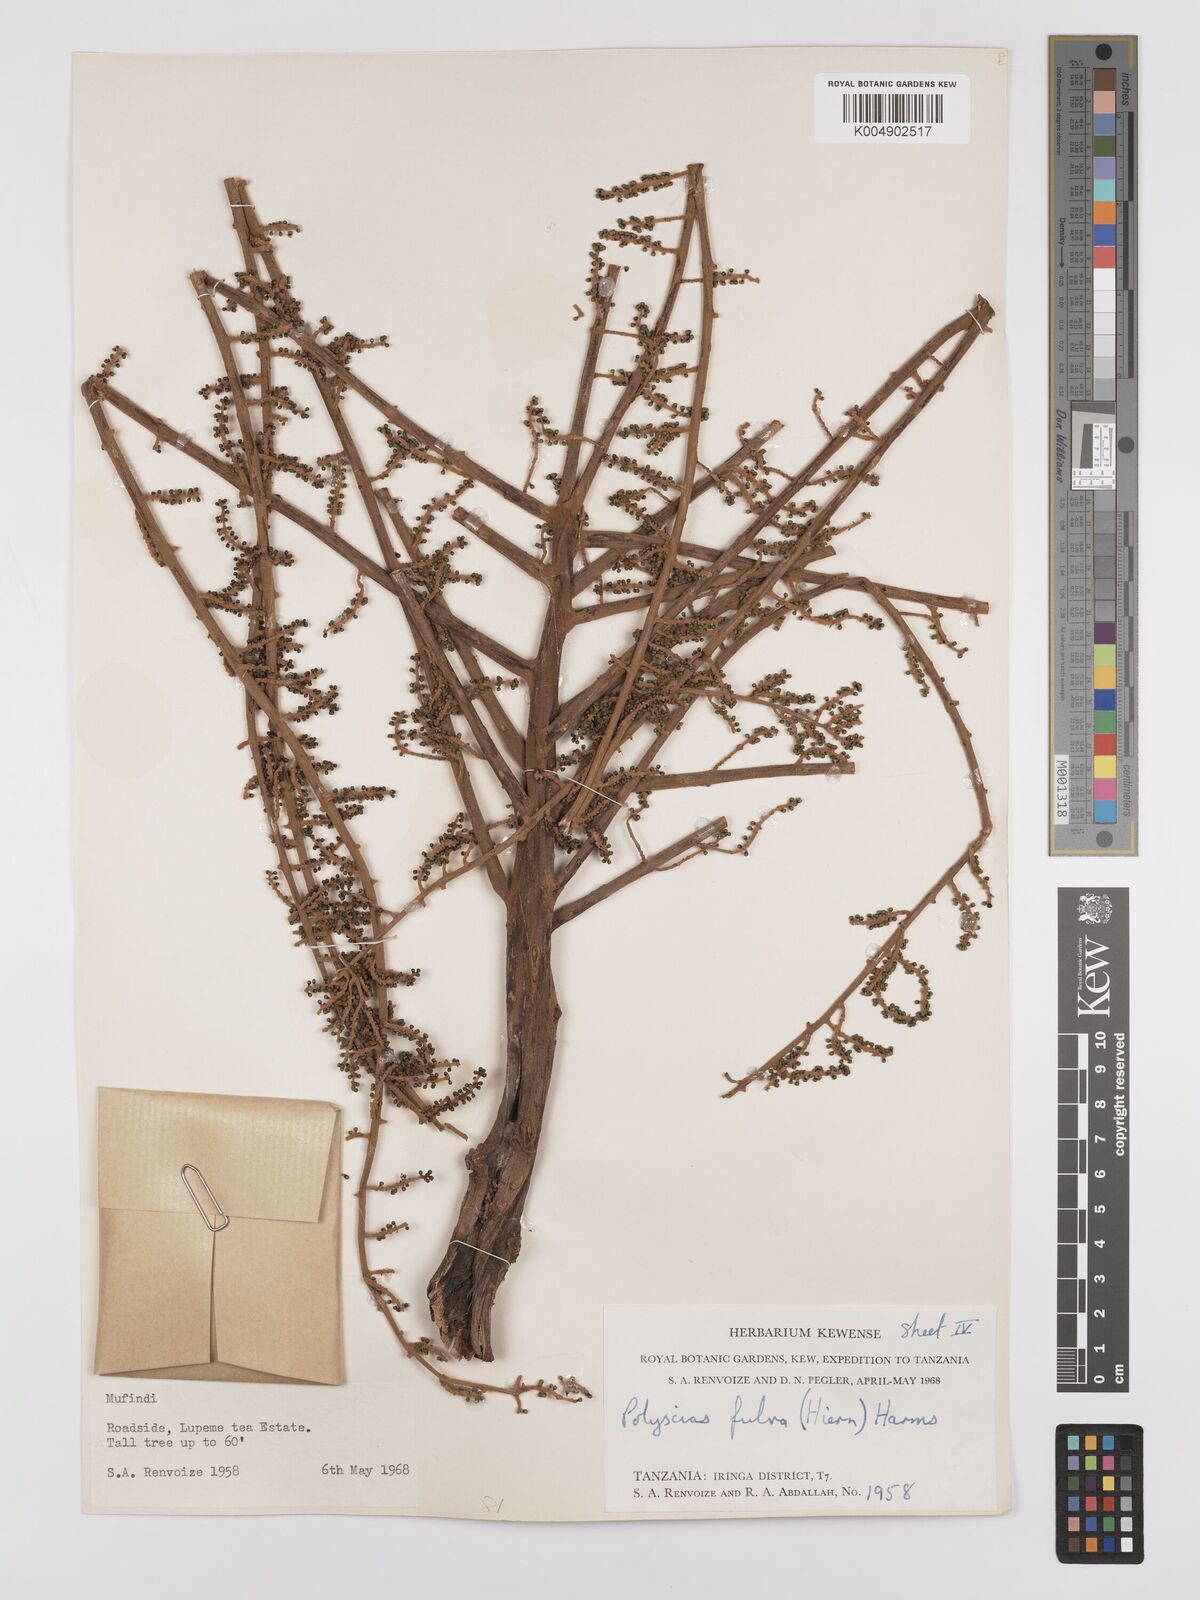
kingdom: Plantae
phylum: Tracheophyta
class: Magnoliopsida
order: Apiales
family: Araliaceae
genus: Polyscias
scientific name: Polyscias fulva
